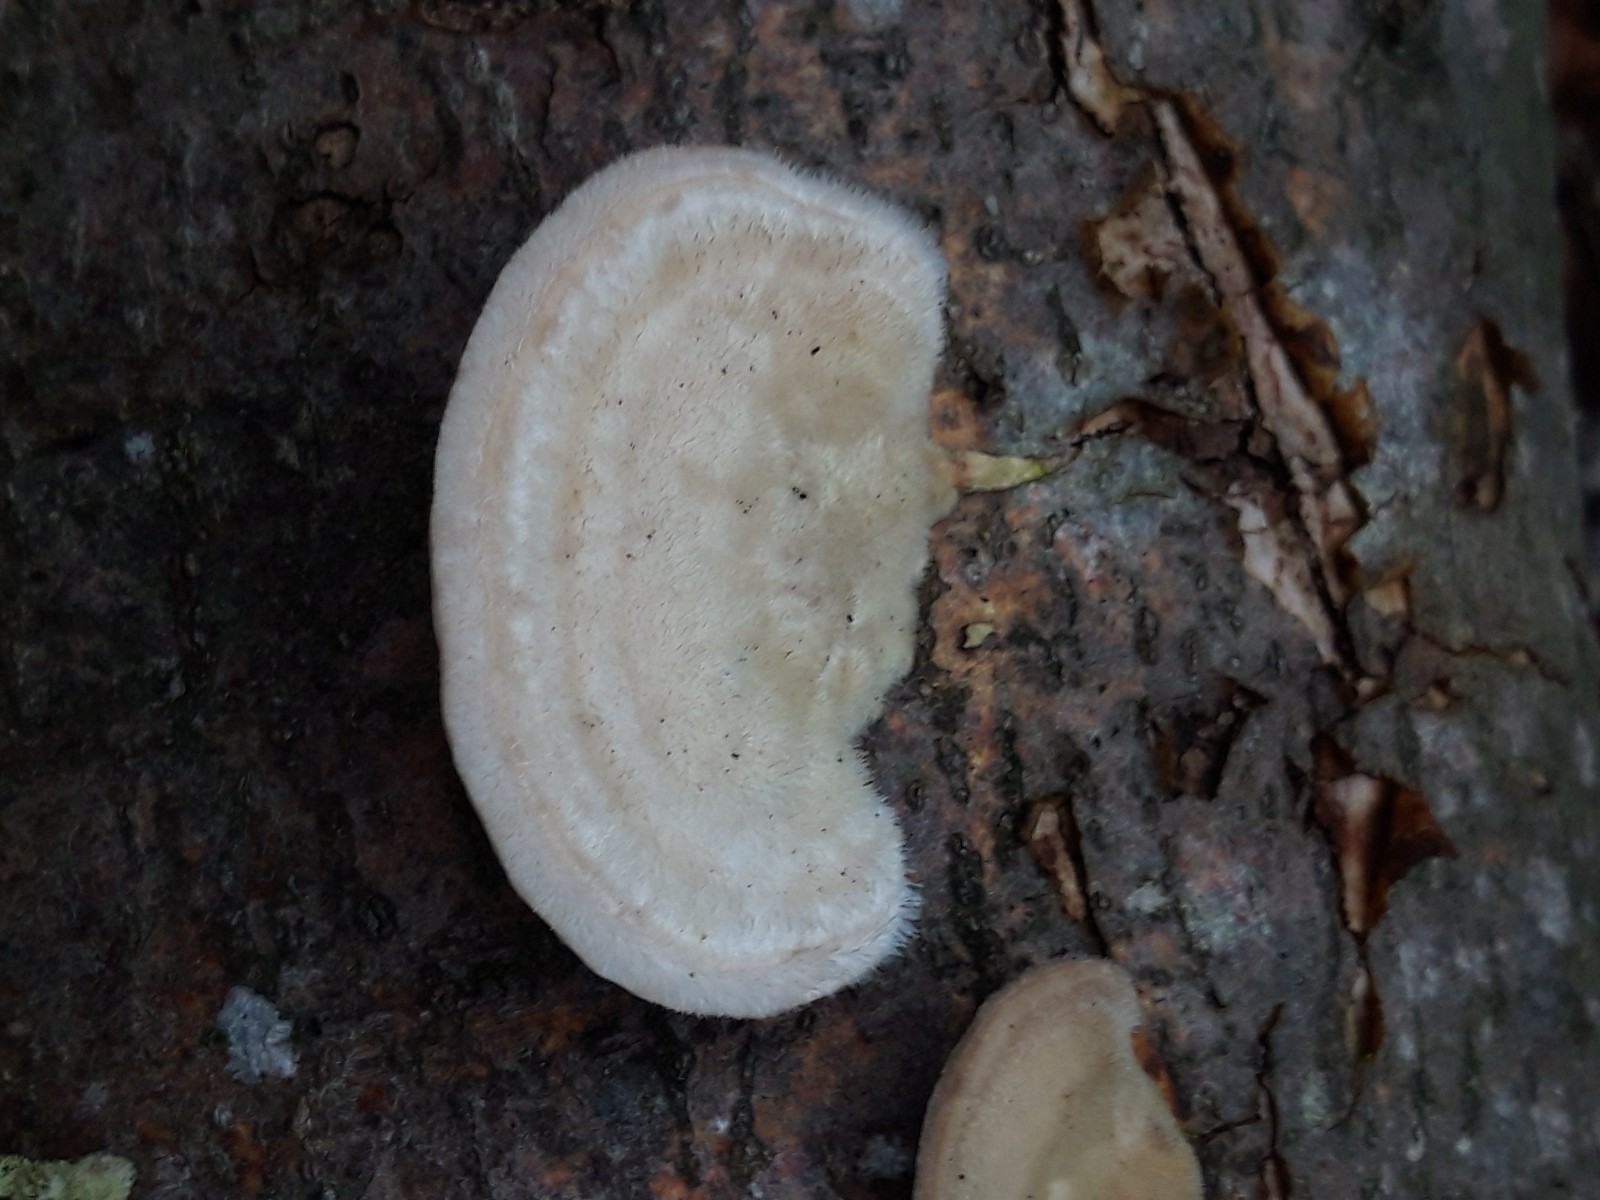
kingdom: Fungi
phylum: Basidiomycota
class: Agaricomycetes
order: Polyporales
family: Polyporaceae
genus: Trametes
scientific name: Trametes hirsuta
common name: håret læderporesvamp
